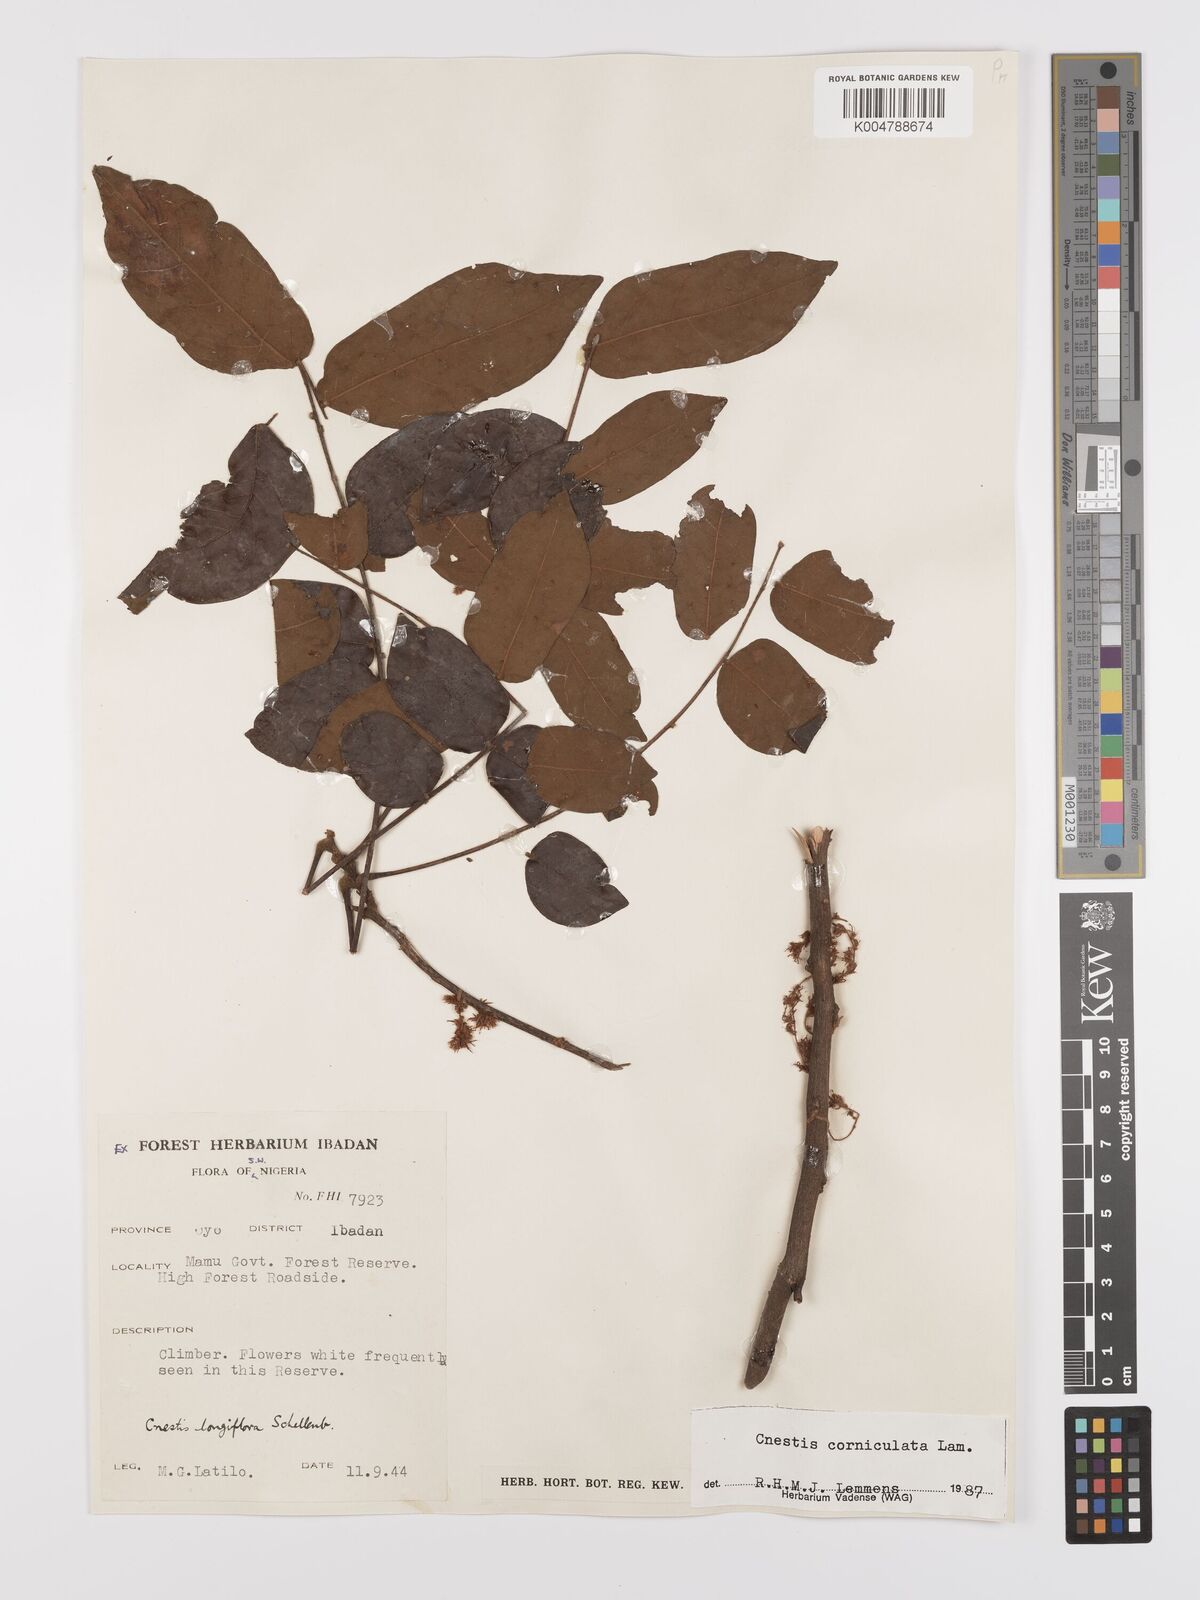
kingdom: Plantae
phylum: Tracheophyta
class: Magnoliopsida
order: Oxalidales
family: Connaraceae
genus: Cnestis
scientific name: Cnestis corniculata
